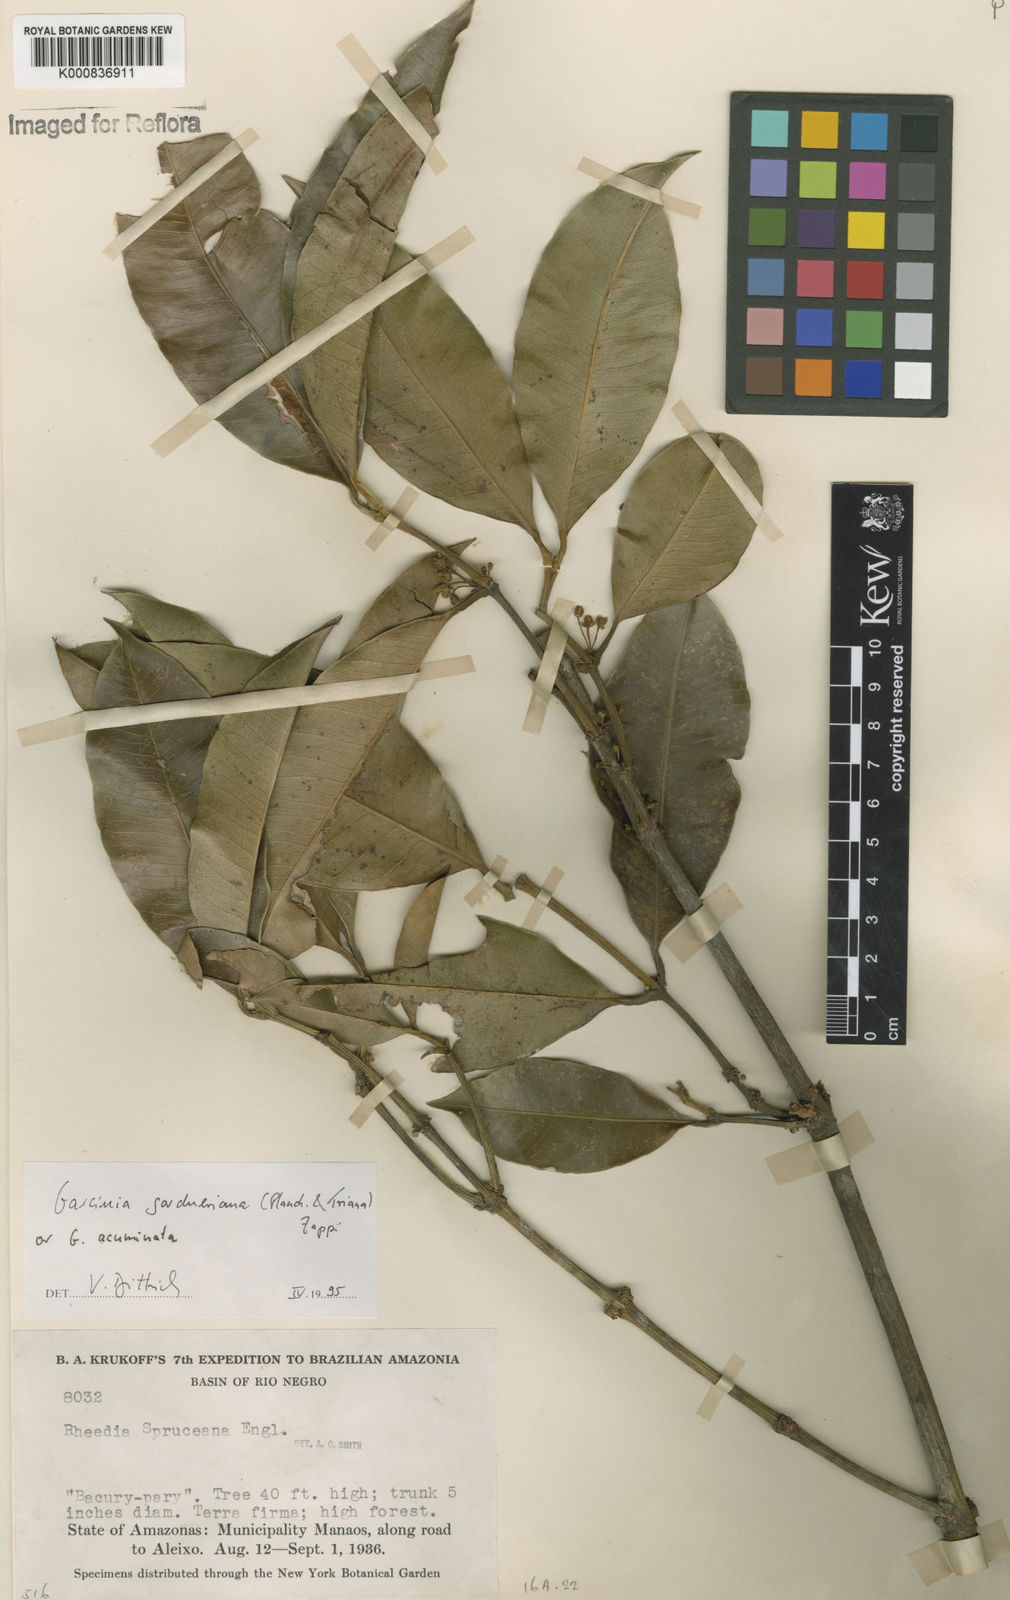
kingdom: Plantae
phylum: Tracheophyta
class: Magnoliopsida
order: Malpighiales
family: Clusiaceae
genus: Garcinia
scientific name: Garcinia gardneriana
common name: Achacha
